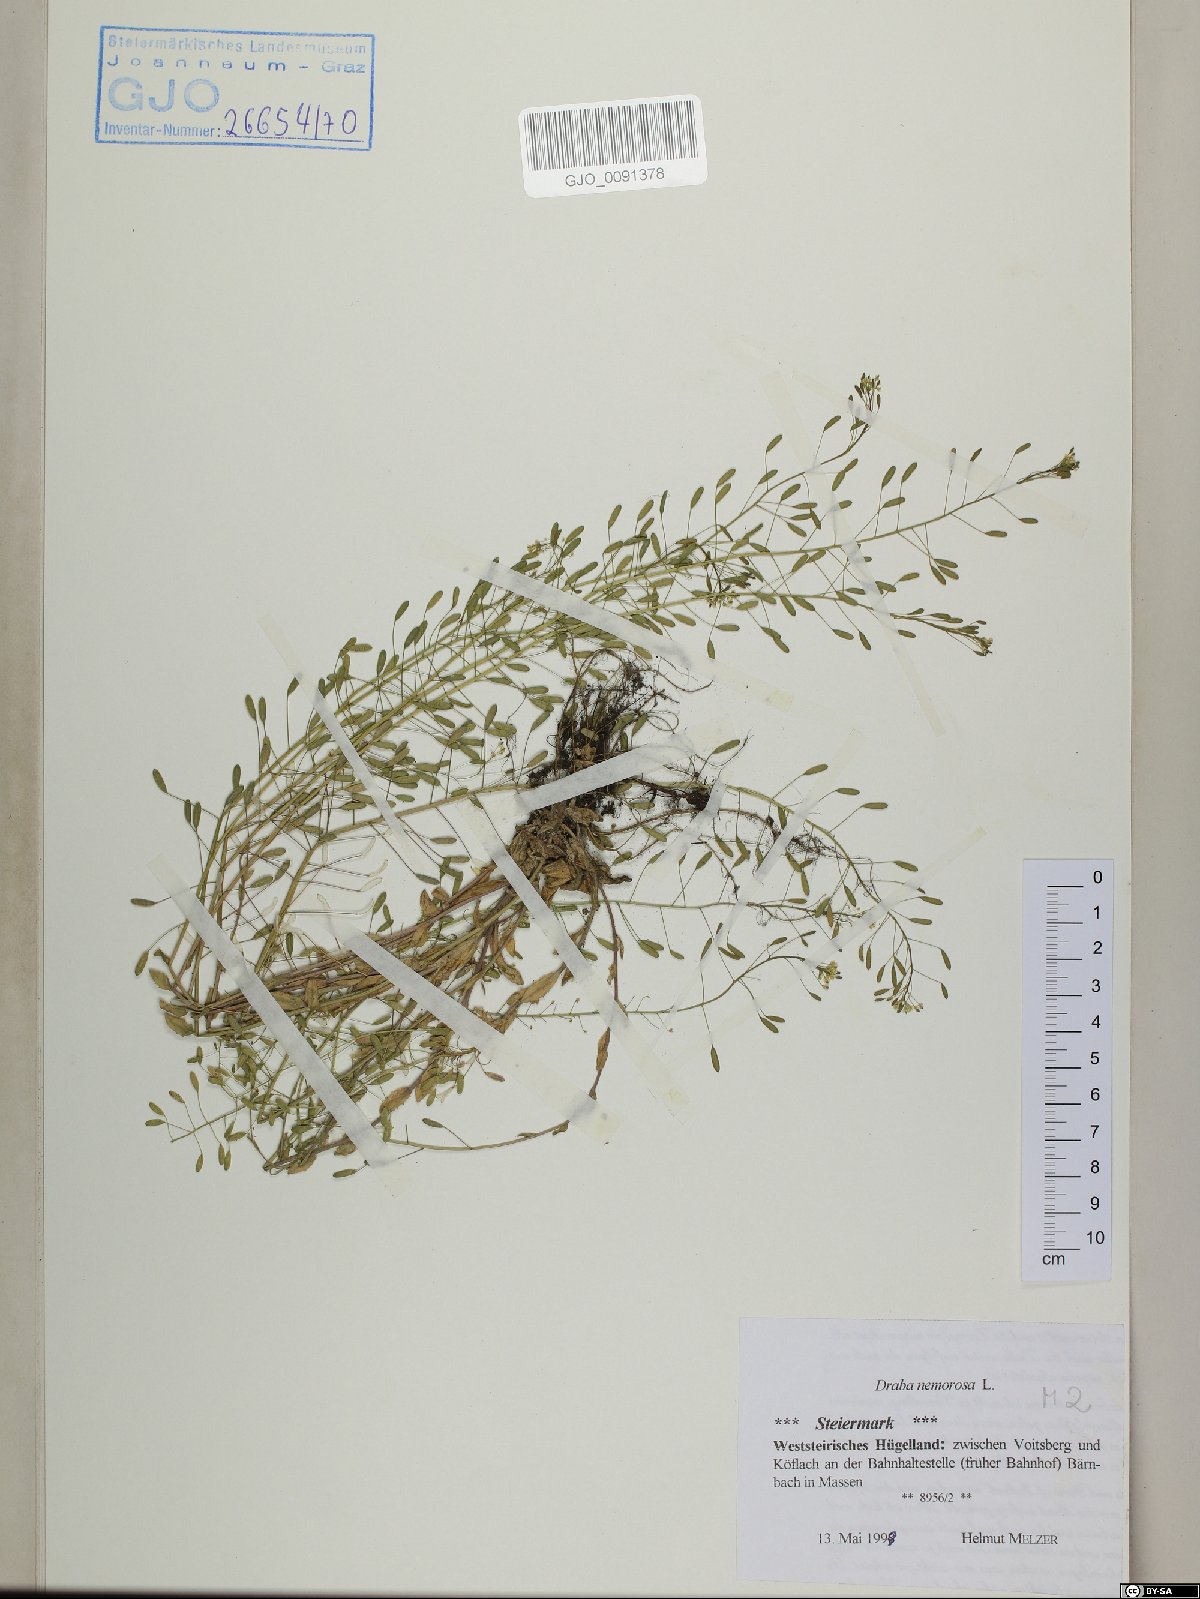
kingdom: Plantae
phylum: Tracheophyta
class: Magnoliopsida
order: Brassicales
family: Brassicaceae
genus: Draba
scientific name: Draba nemorosa
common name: Wood whitlow-grass
